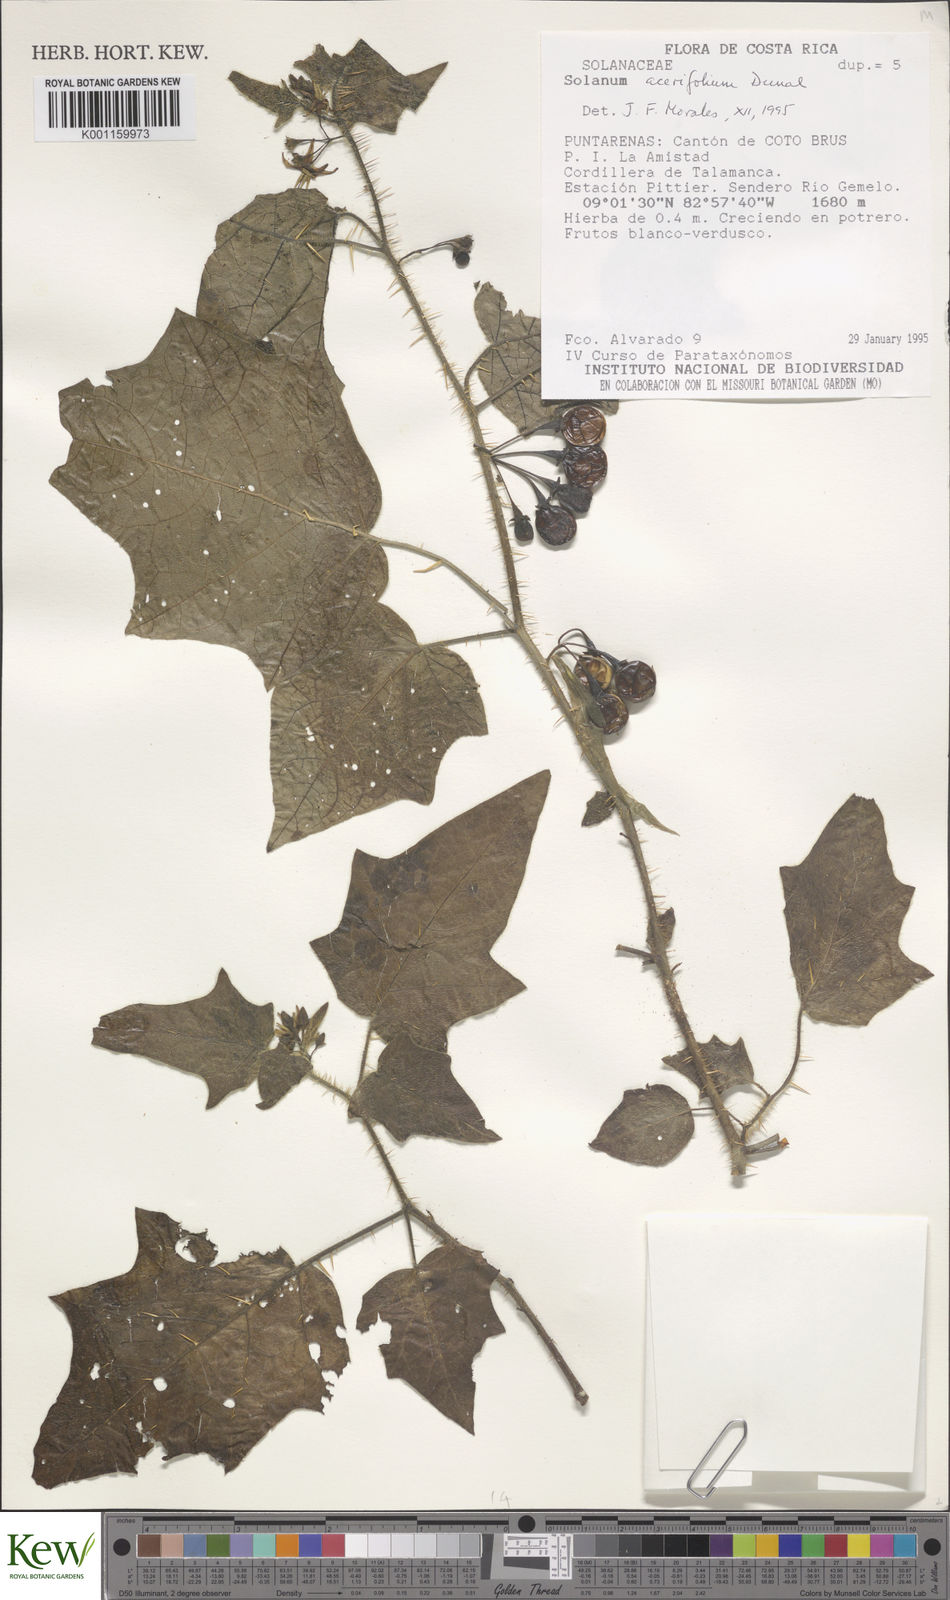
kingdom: Plantae
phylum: Tracheophyta
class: Magnoliopsida
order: Solanales
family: Solanaceae
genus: Solanum
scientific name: Solanum acerifolium
